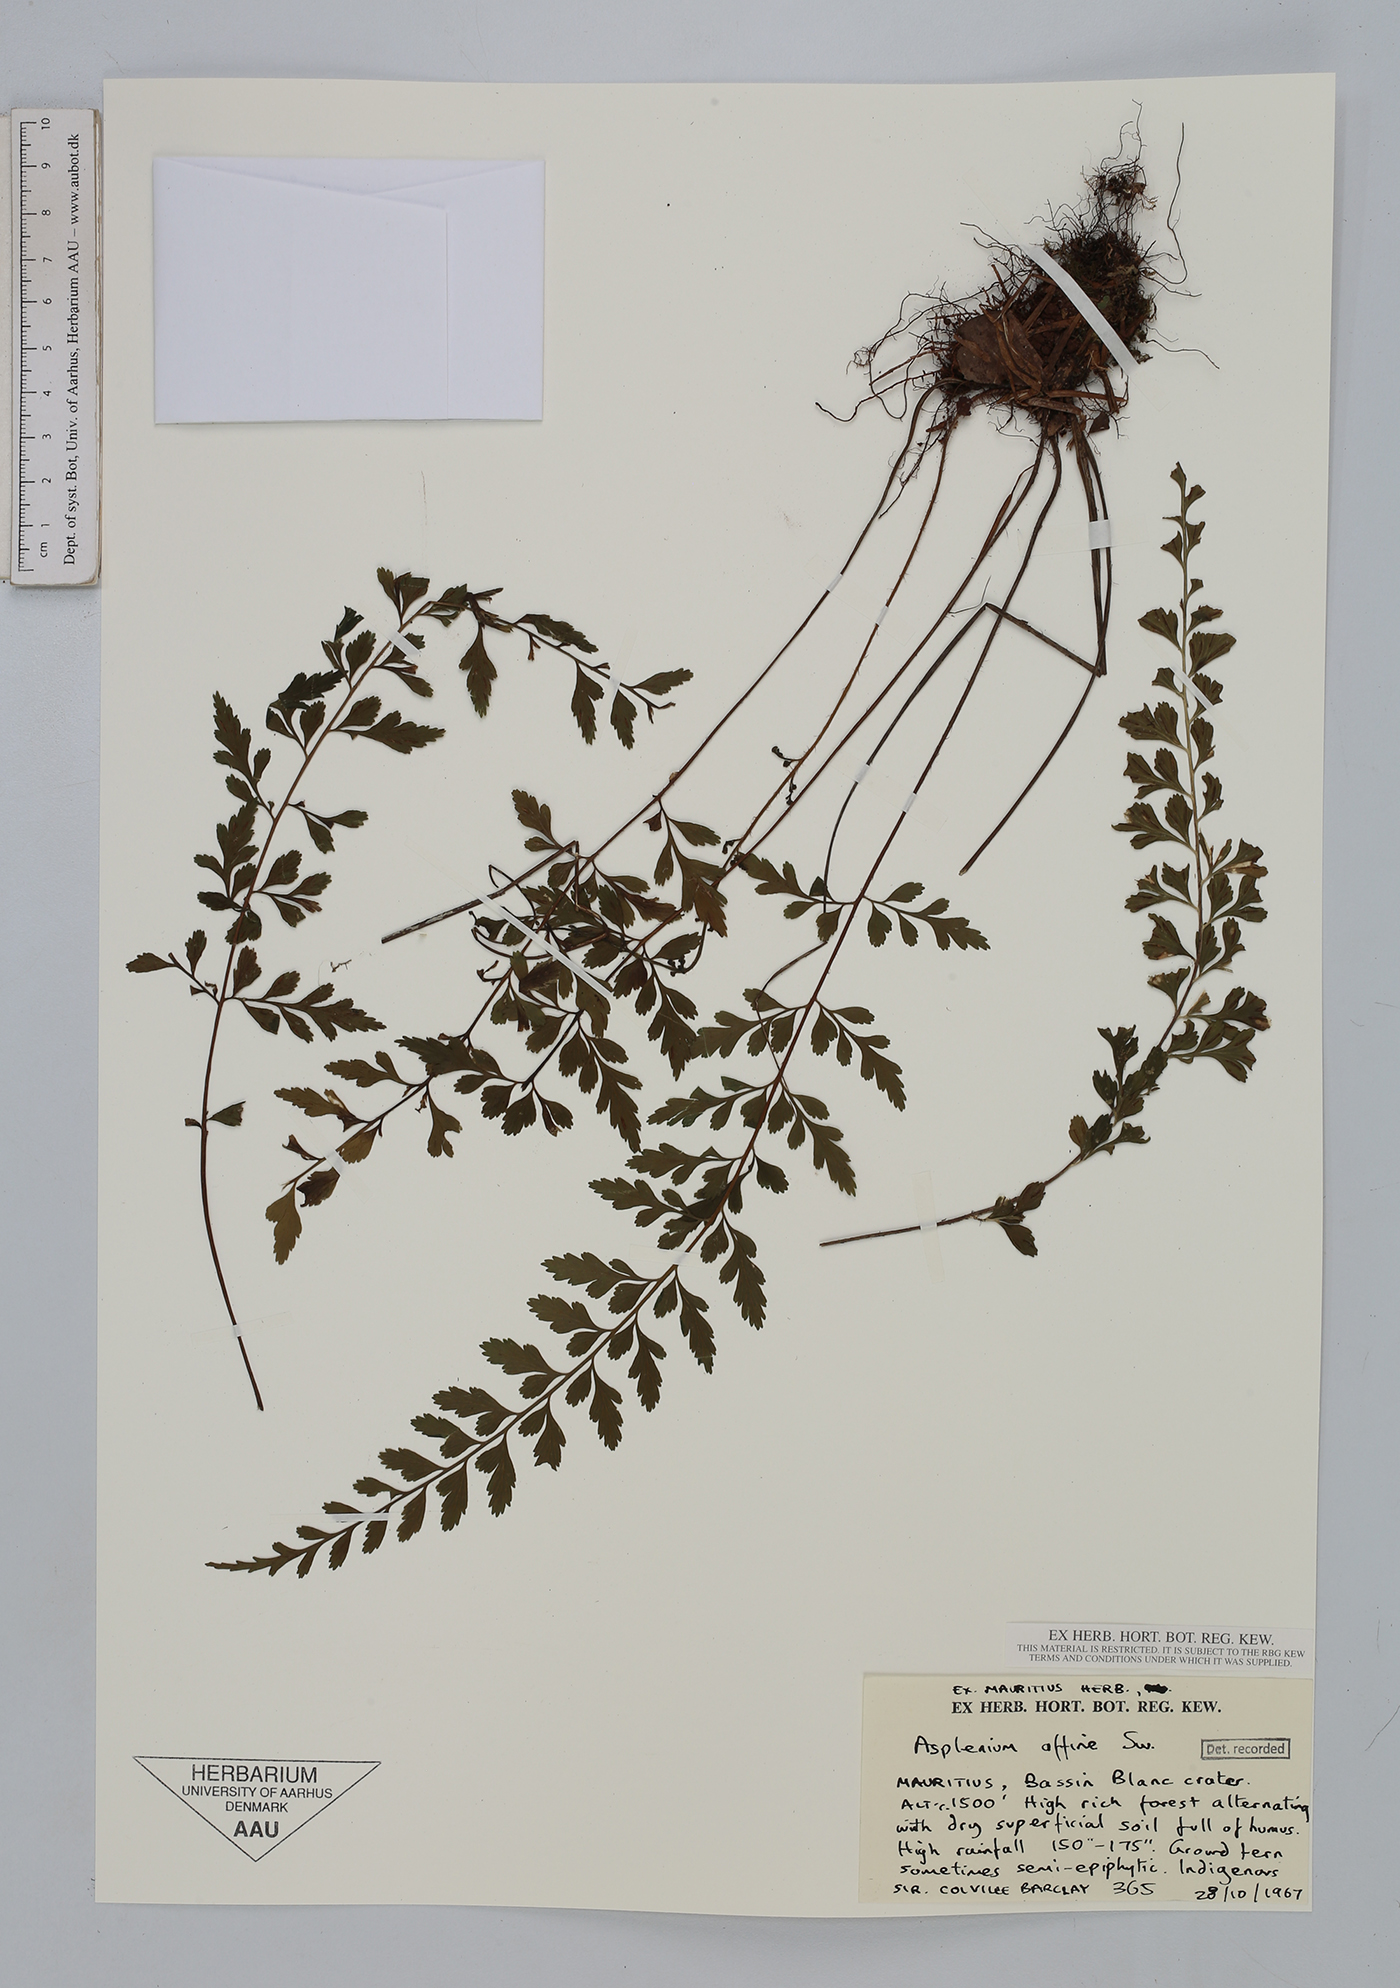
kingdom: Plantae
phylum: Tracheophyta
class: Polypodiopsida
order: Polypodiales
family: Aspleniaceae
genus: Asplenium
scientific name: Asplenium affine
